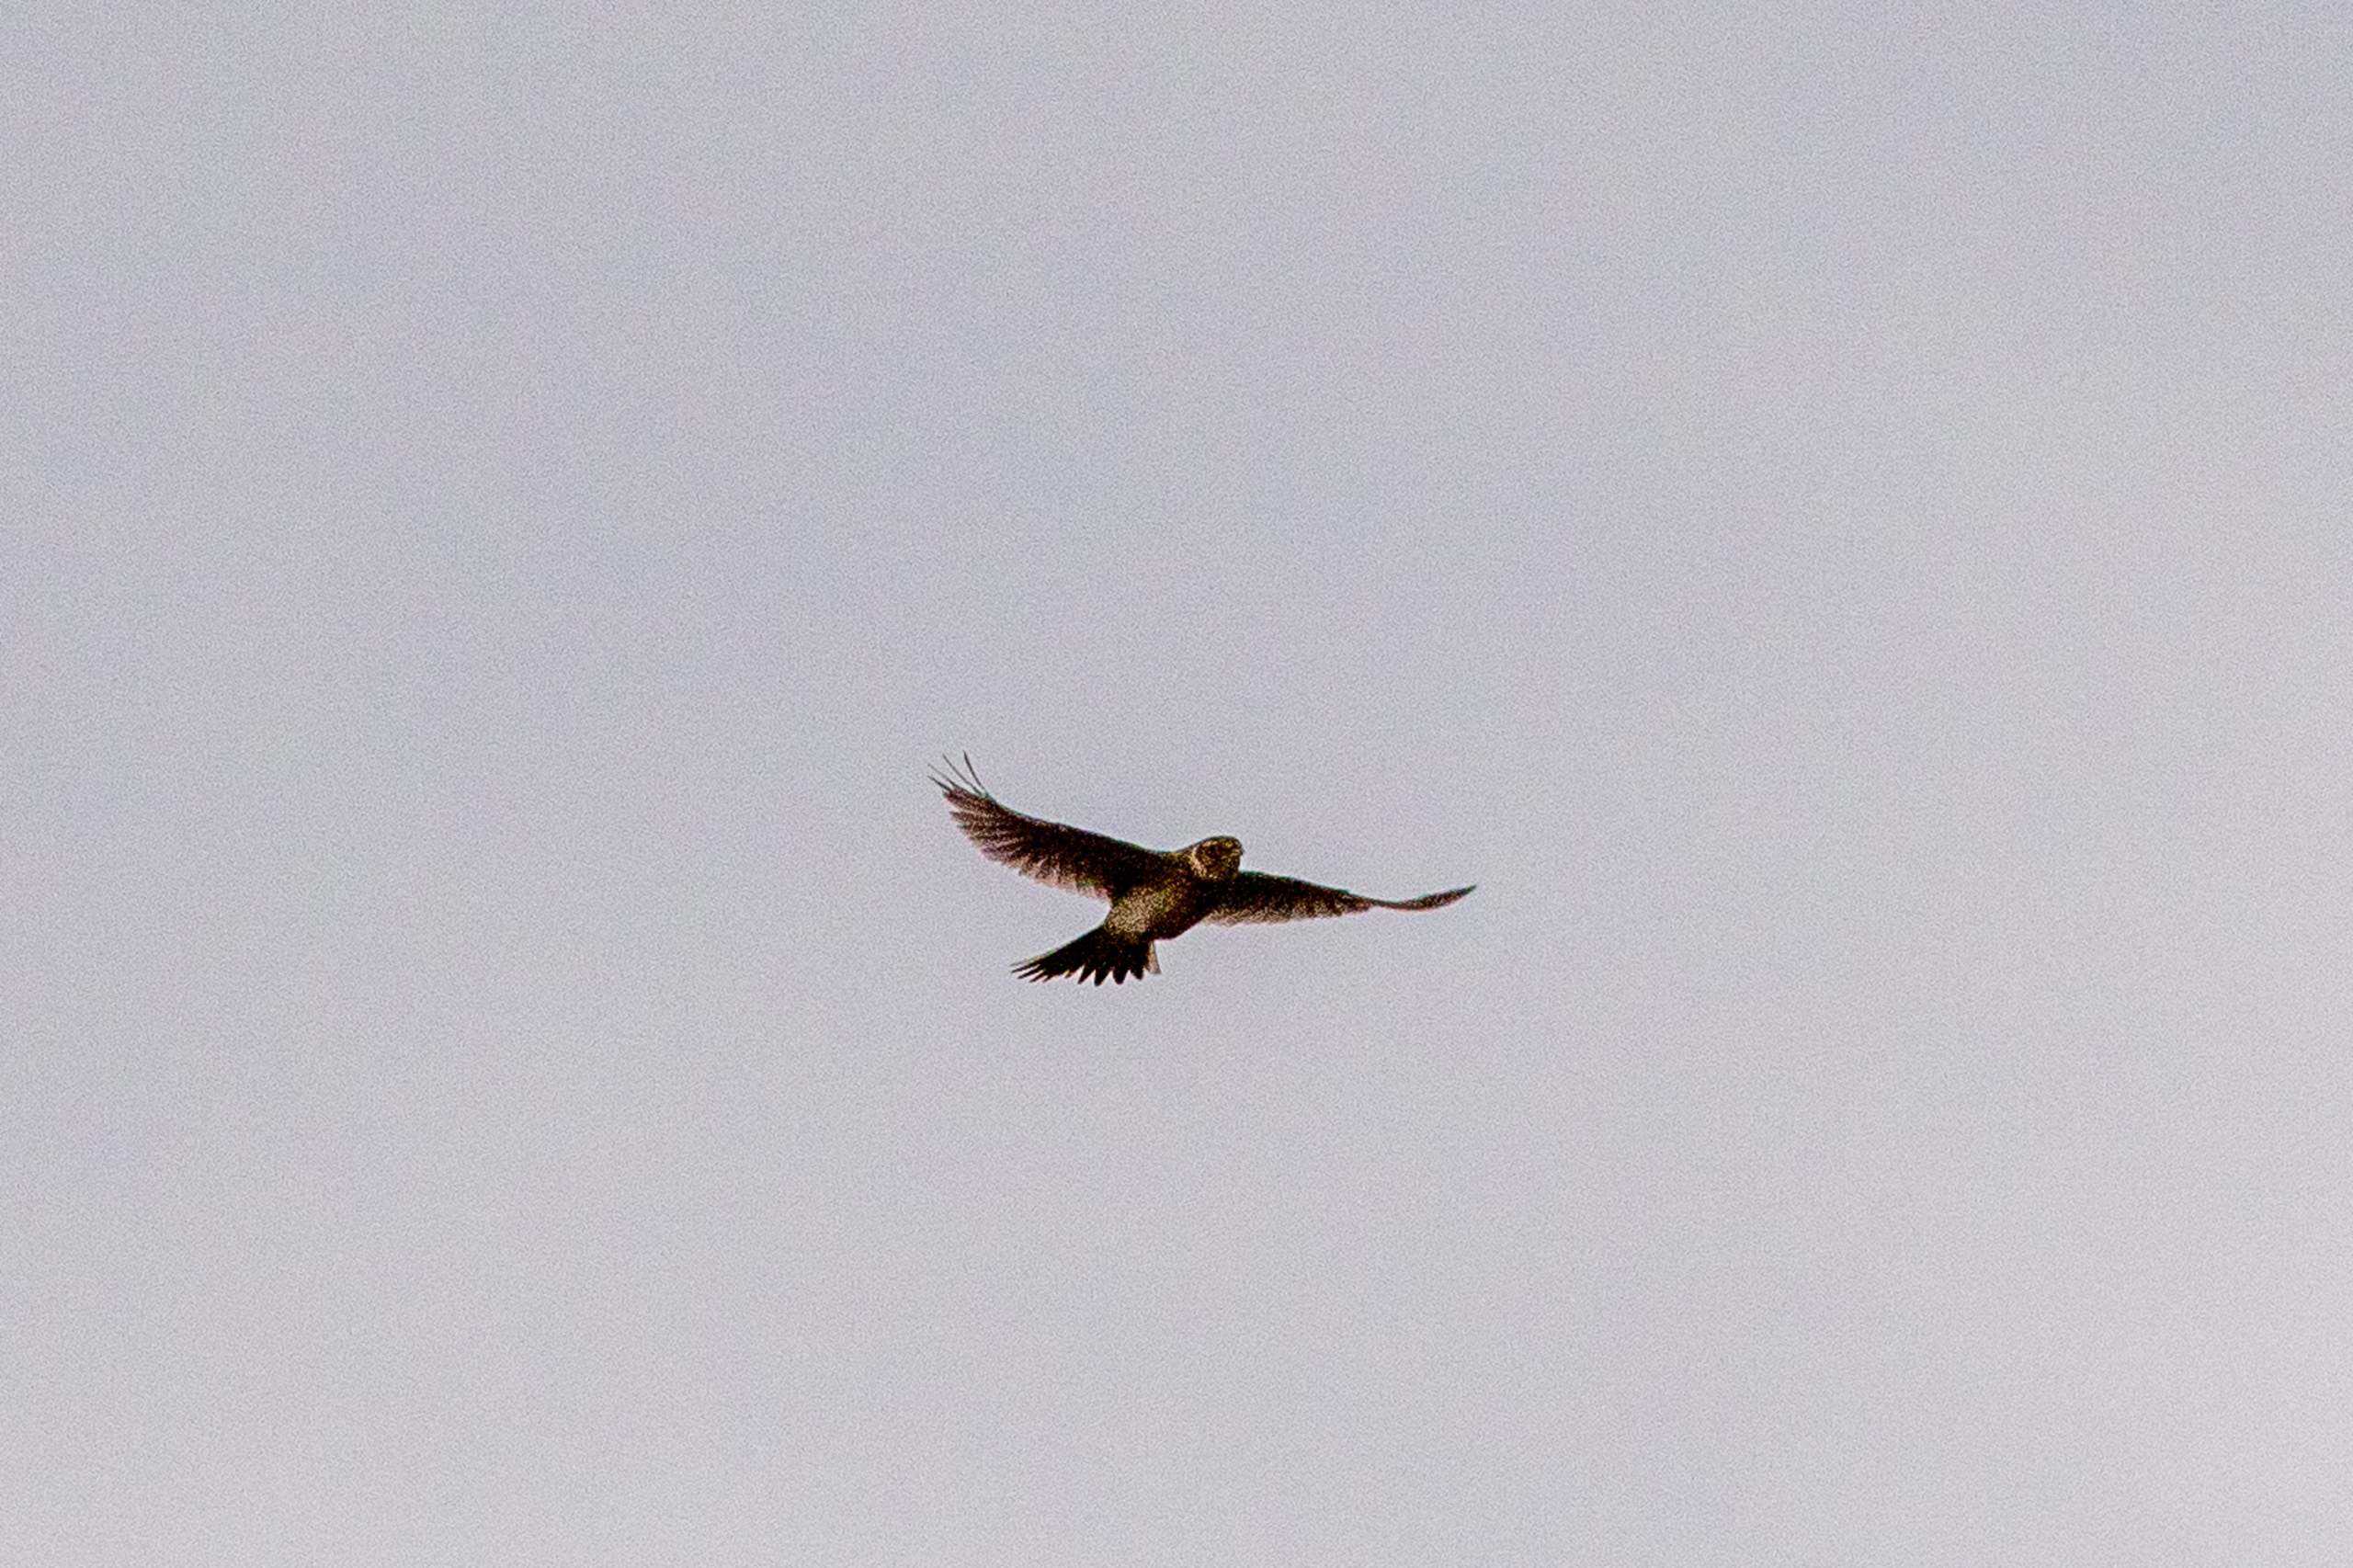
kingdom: Animalia
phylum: Chordata
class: Aves
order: Passeriformes
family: Emberizidae
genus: Emberiza
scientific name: Emberiza schoeniclus
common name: Rørspurv
